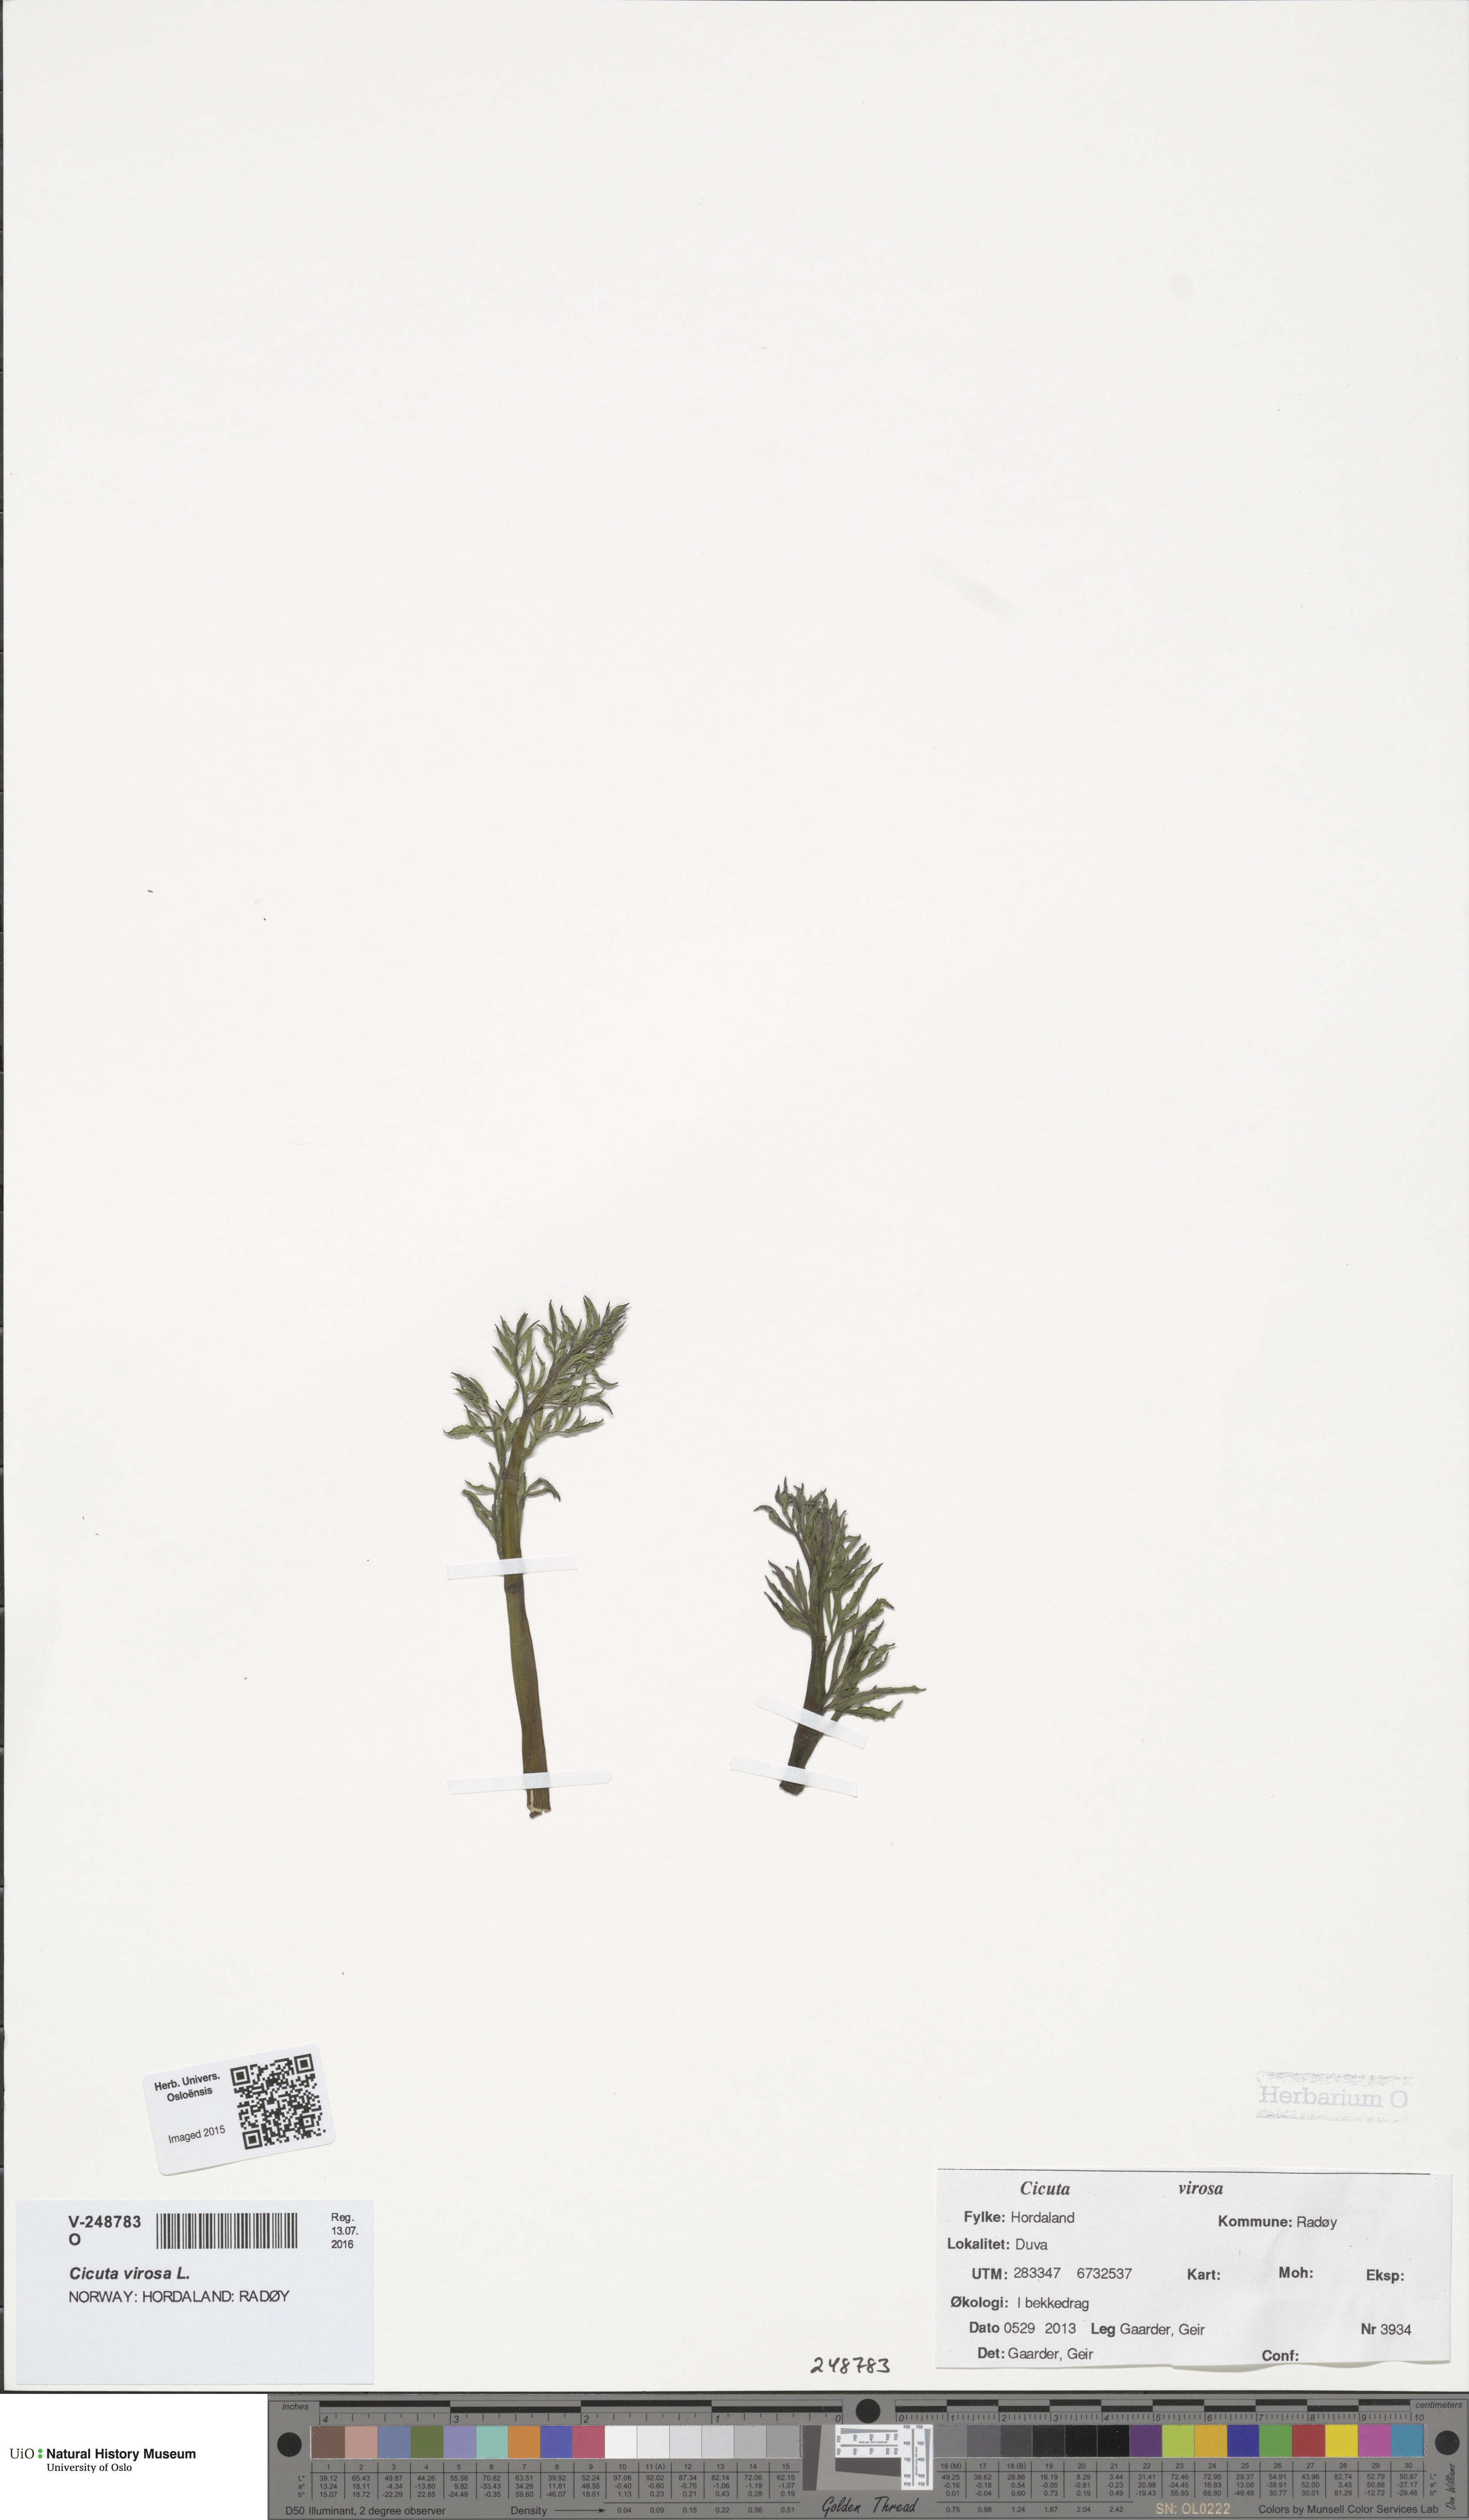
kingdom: Plantae
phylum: Tracheophyta
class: Magnoliopsida
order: Apiales
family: Apiaceae
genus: Cicuta
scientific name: Cicuta virosa
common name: Cowbane
